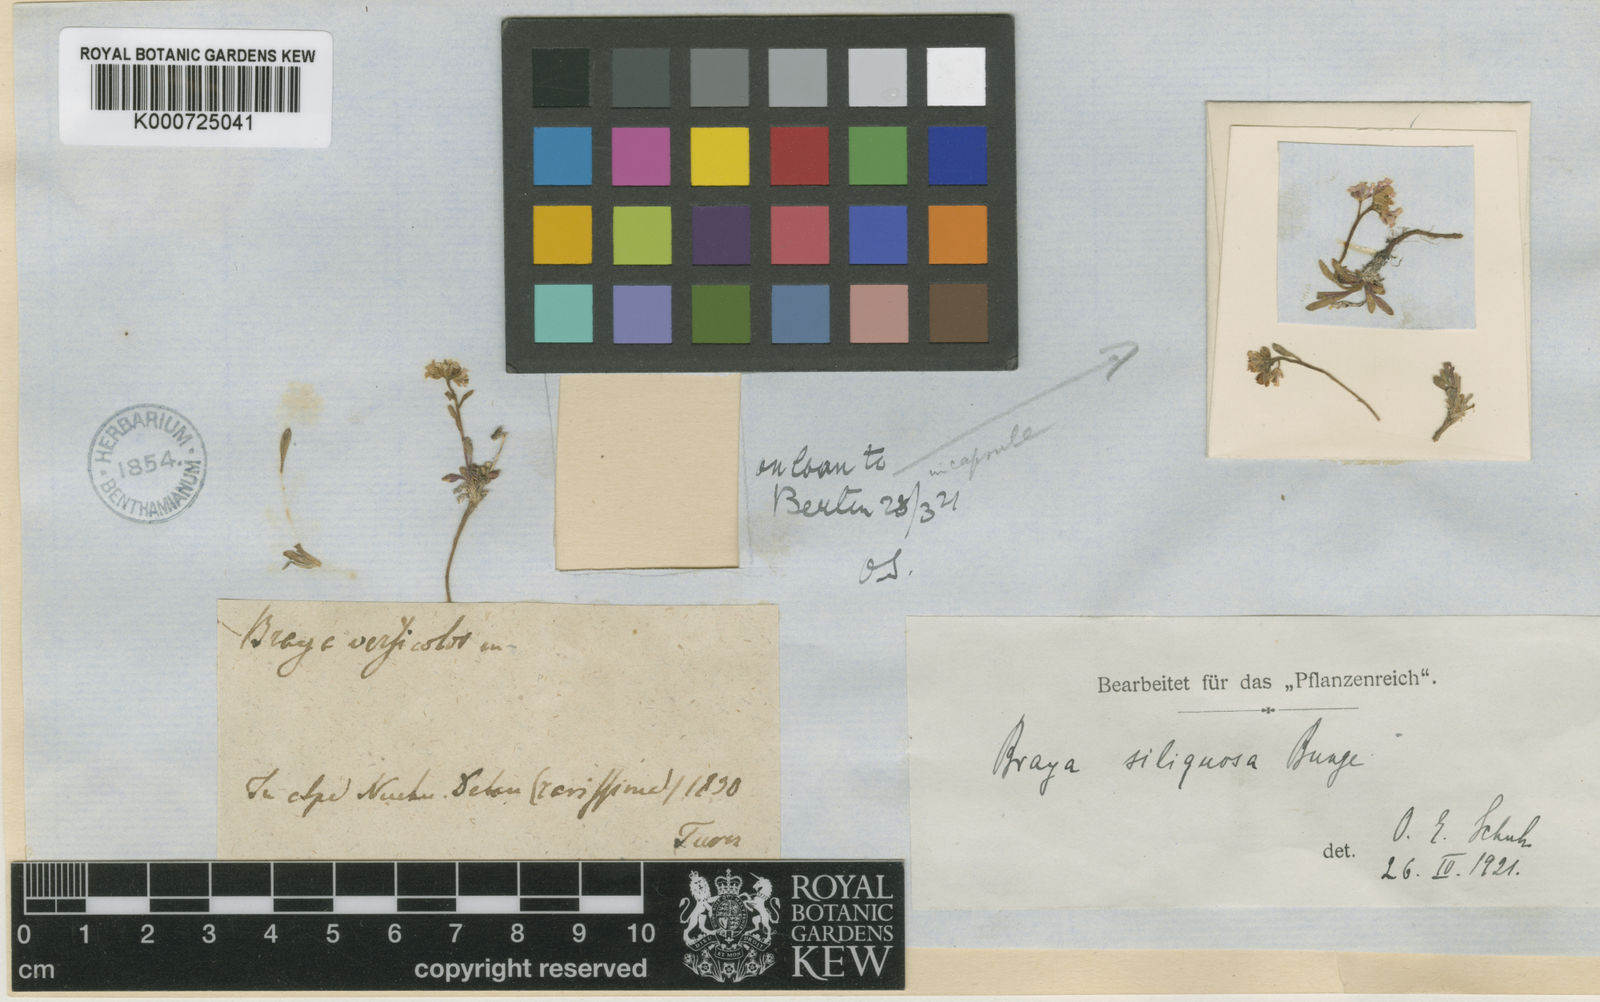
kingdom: Plantae
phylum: Tracheophyta
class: Magnoliopsida
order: Brassicales
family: Brassicaceae
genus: Braya
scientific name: Braya siliquosa
